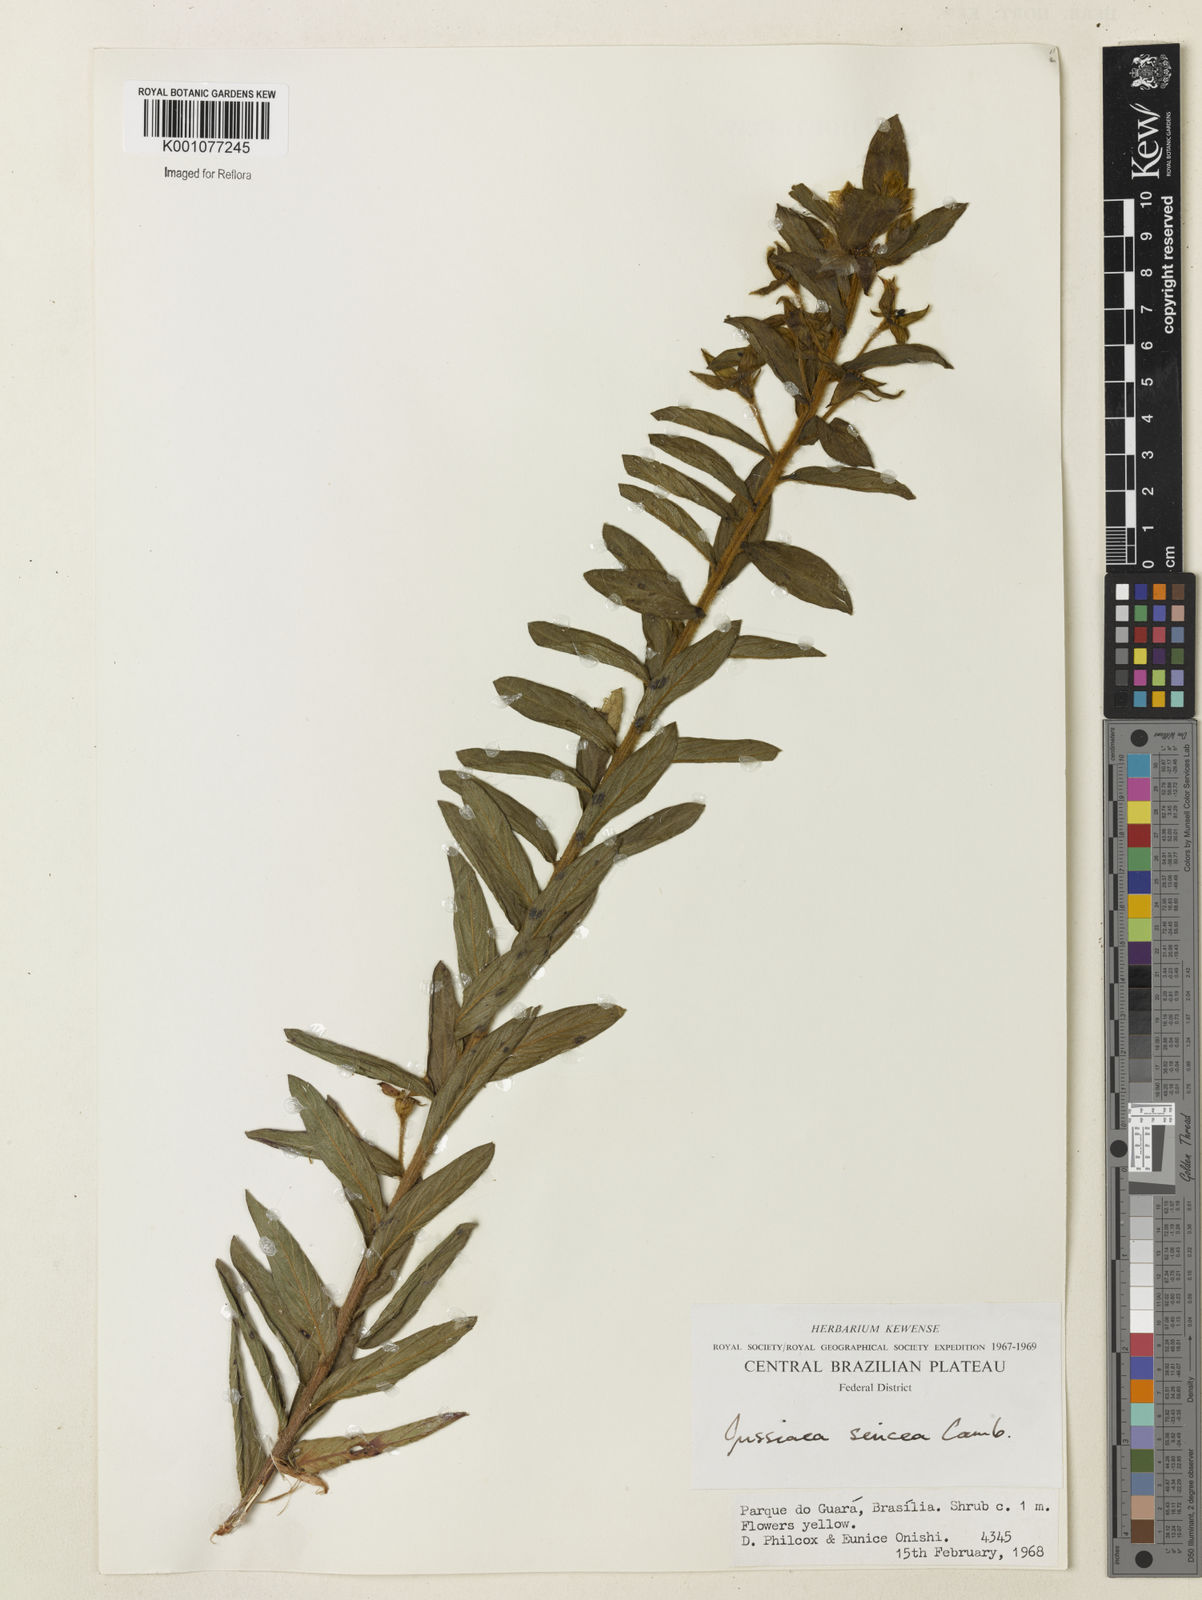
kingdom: Plantae
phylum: Tracheophyta
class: Magnoliopsida
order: Myrtales
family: Onagraceae
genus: Ludwigia
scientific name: Ludwigia sericea
